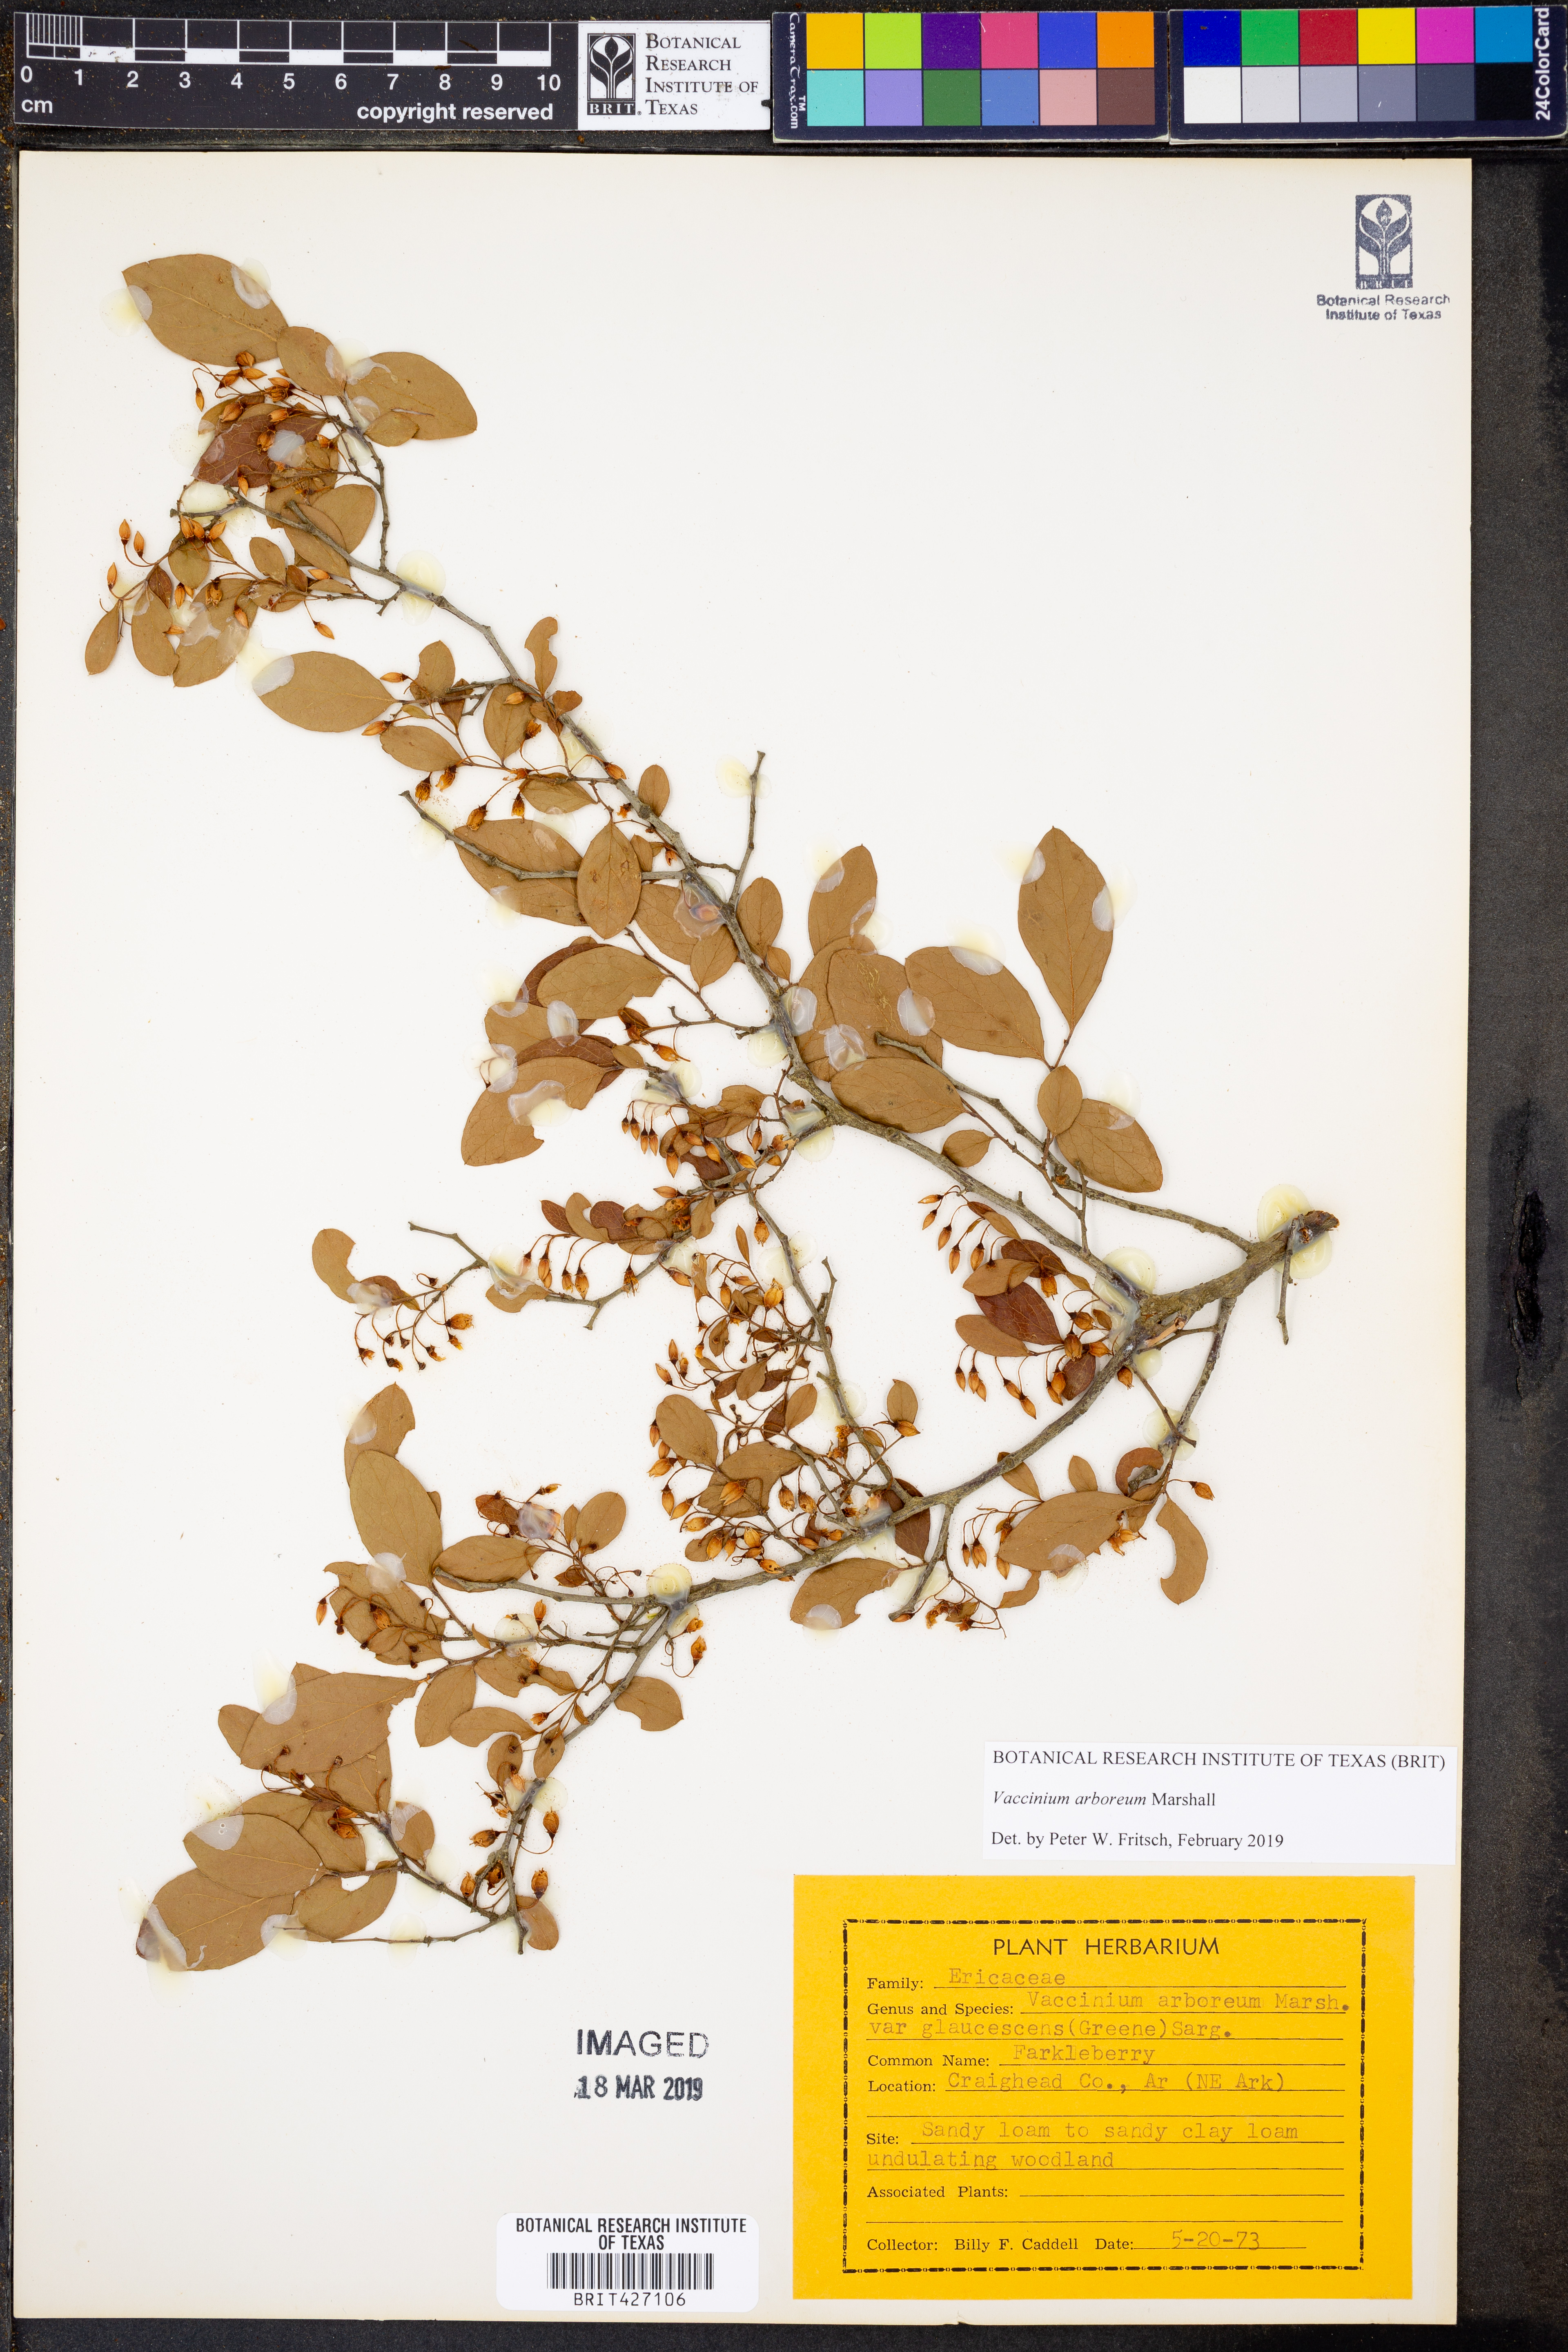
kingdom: Plantae
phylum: Tracheophyta
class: Magnoliopsida
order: Ericales
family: Ericaceae
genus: Vaccinium
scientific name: Vaccinium arboreum
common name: Farkleberry
